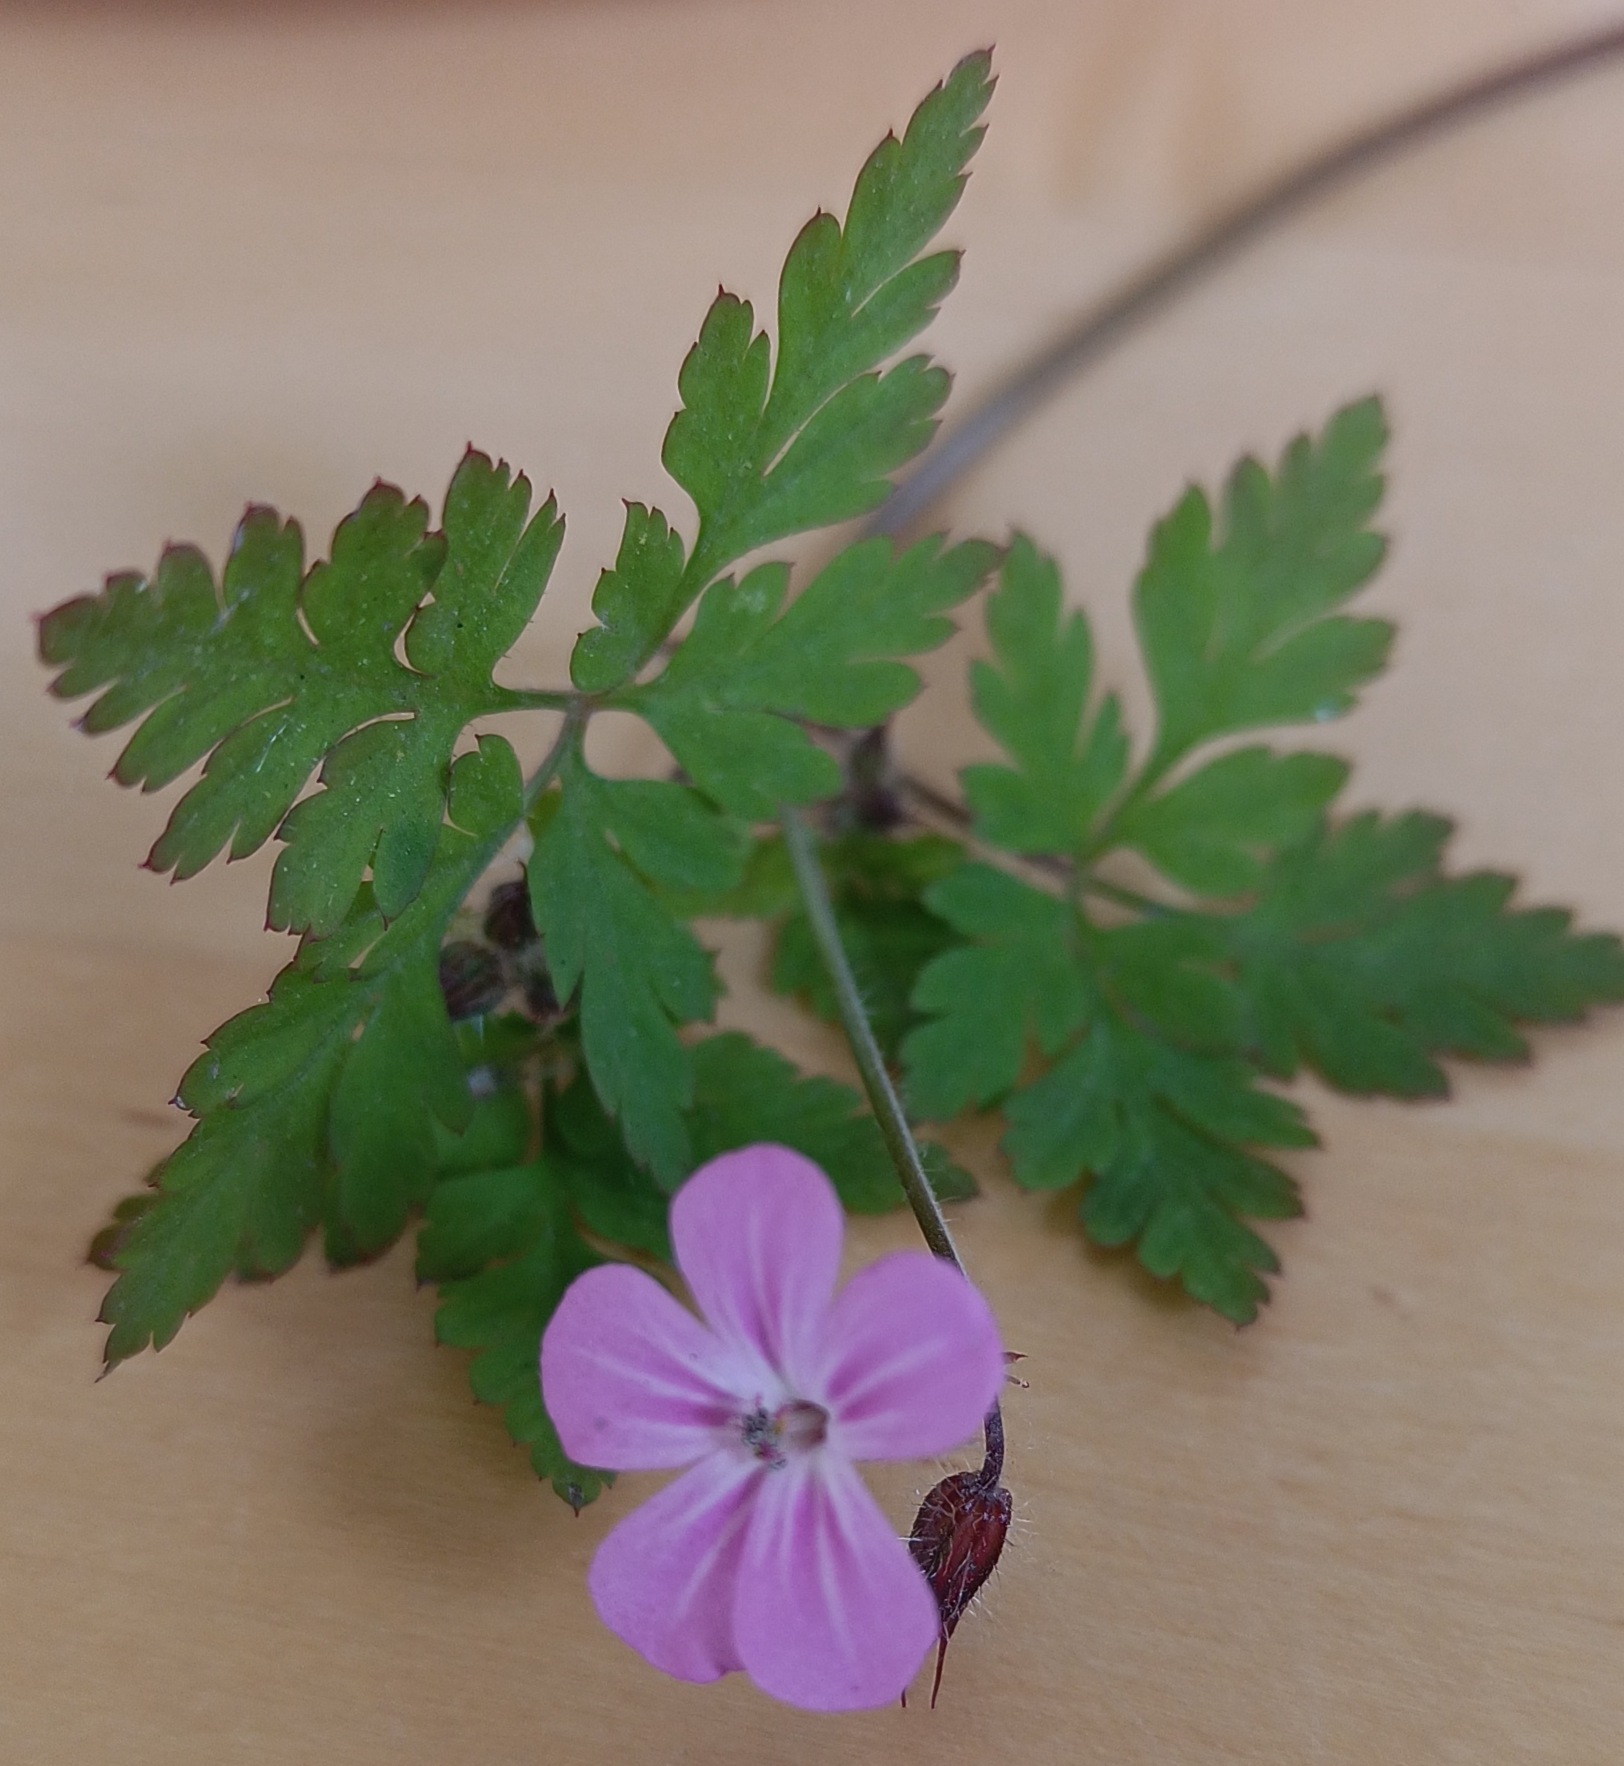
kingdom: Plantae
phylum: Tracheophyta
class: Magnoliopsida
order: Geraniales
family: Geraniaceae
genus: Geranium
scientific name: Geranium robertianum
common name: Stinkende storkenæb
